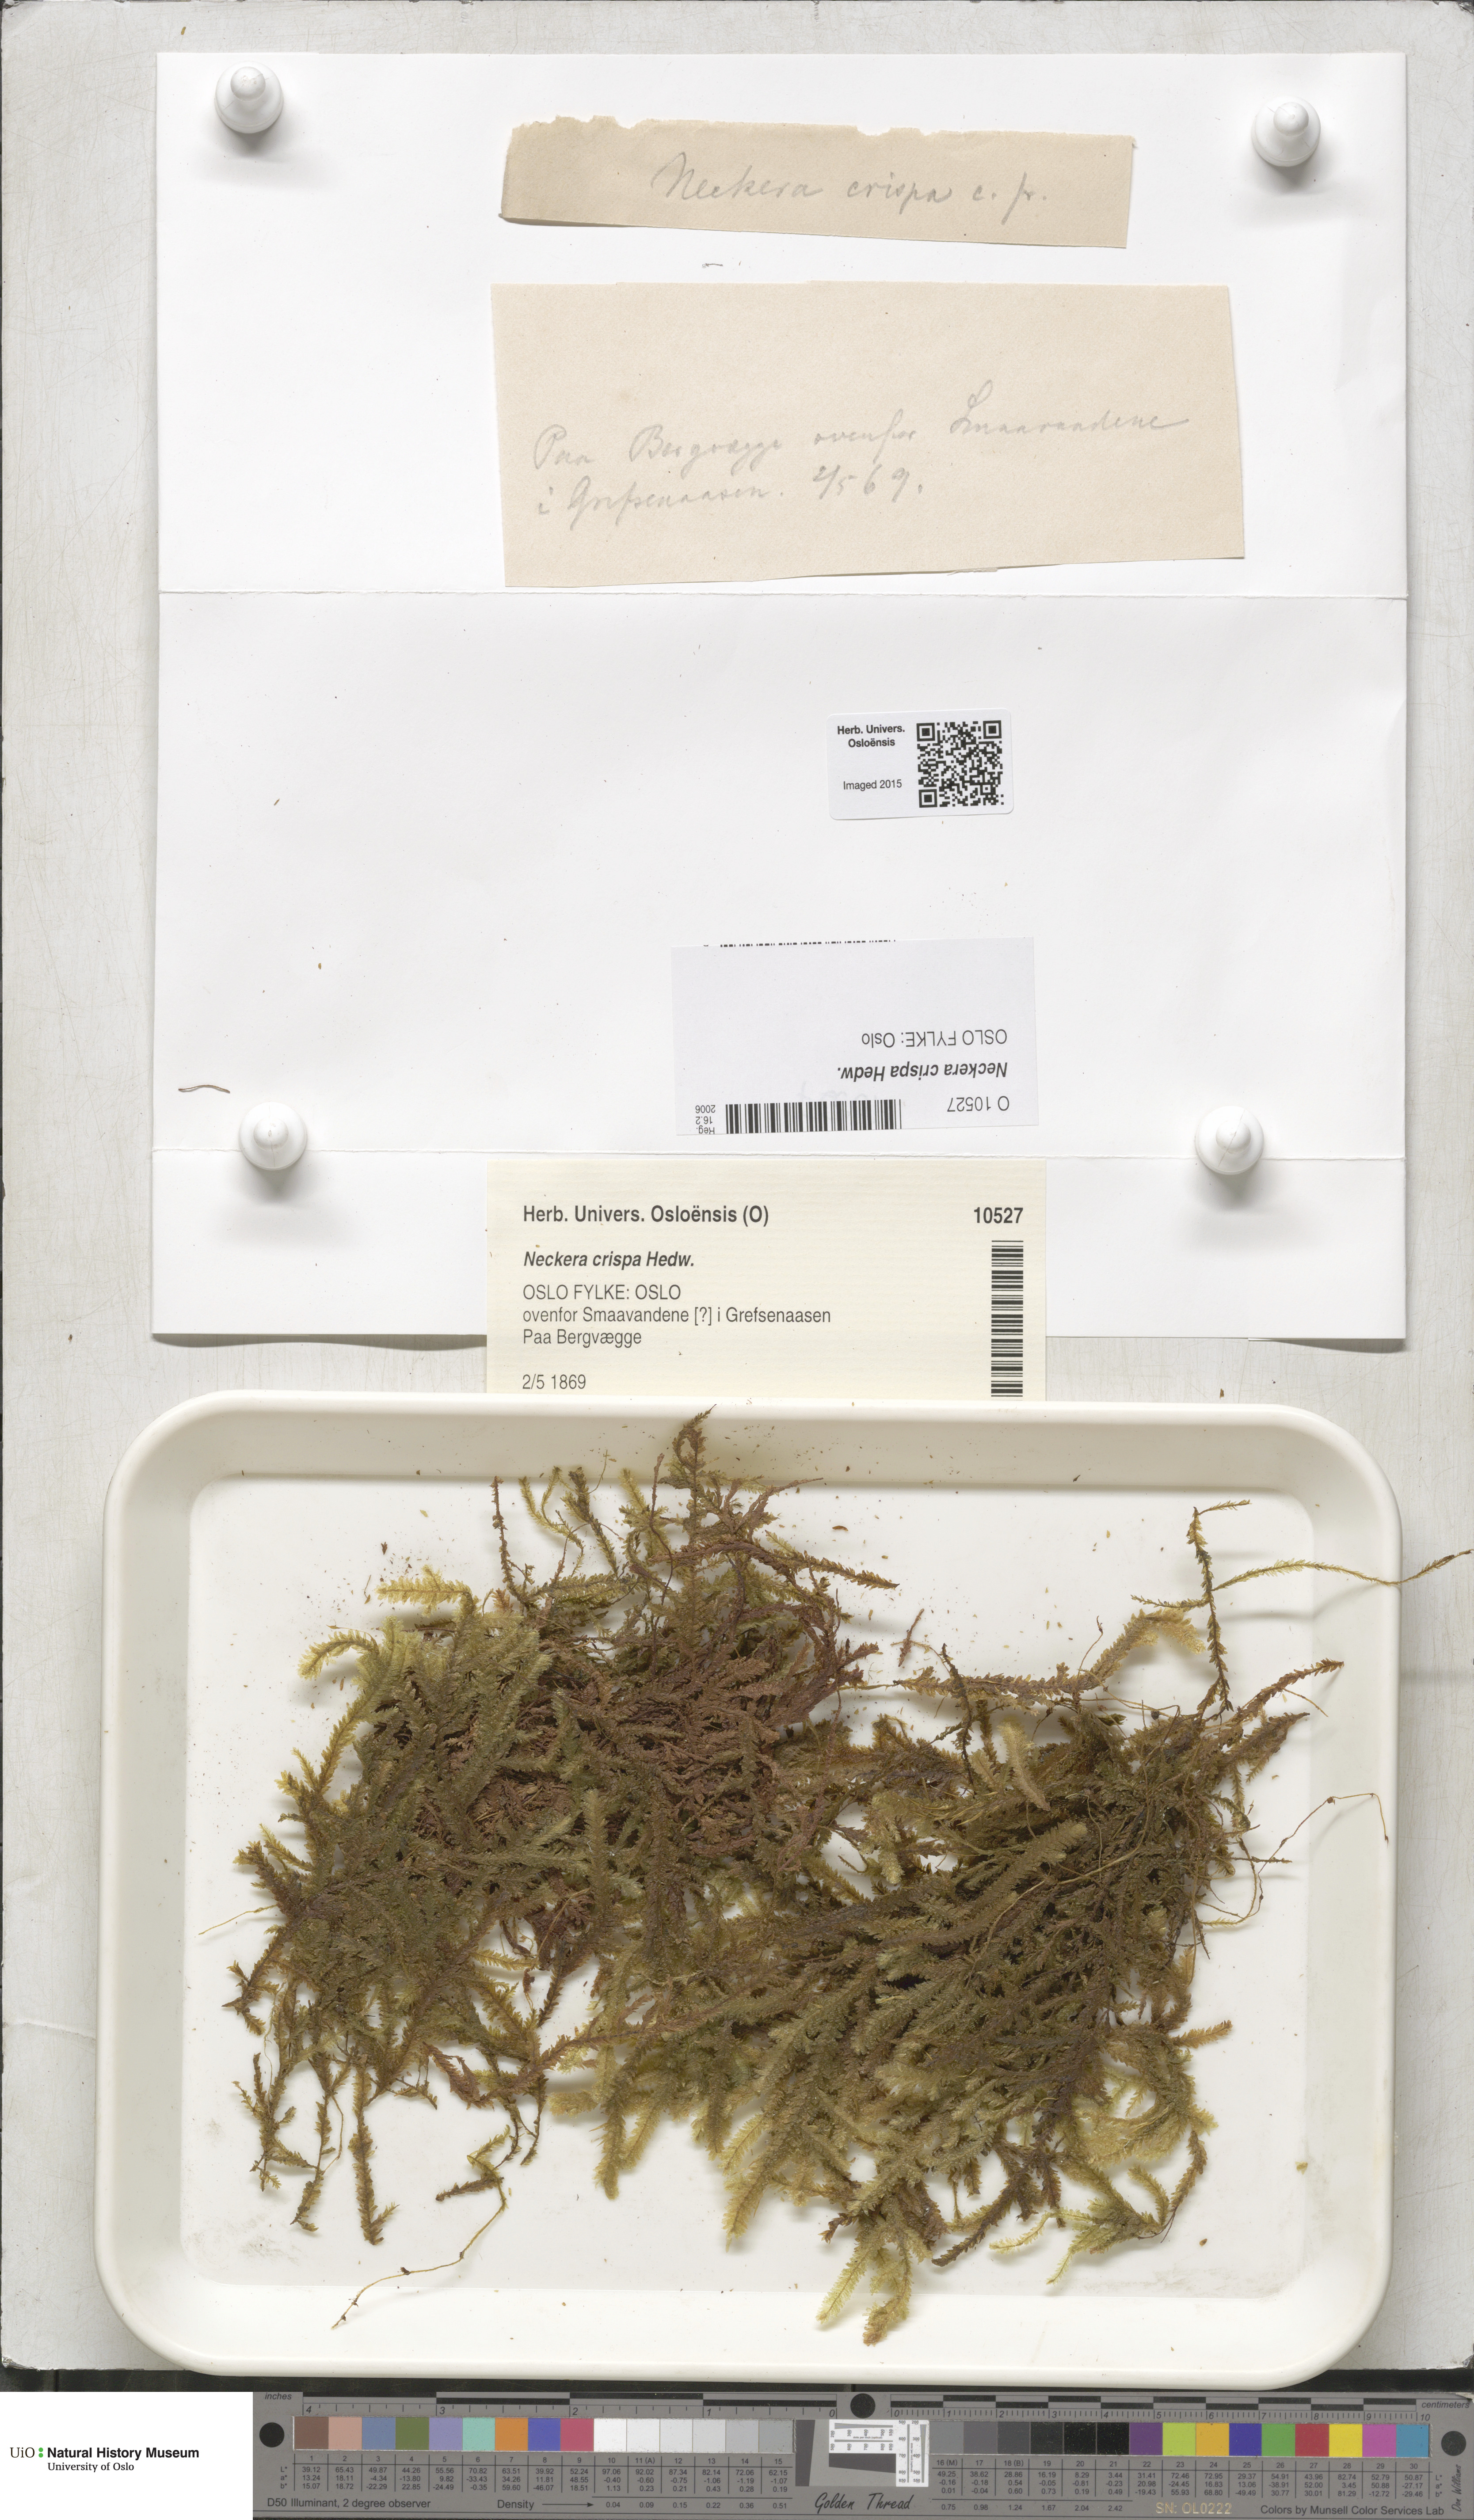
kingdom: Plantae
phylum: Bryophyta
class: Bryopsida
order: Hypnales
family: Neckeraceae
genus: Exsertotheca
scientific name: Exsertotheca crispa
